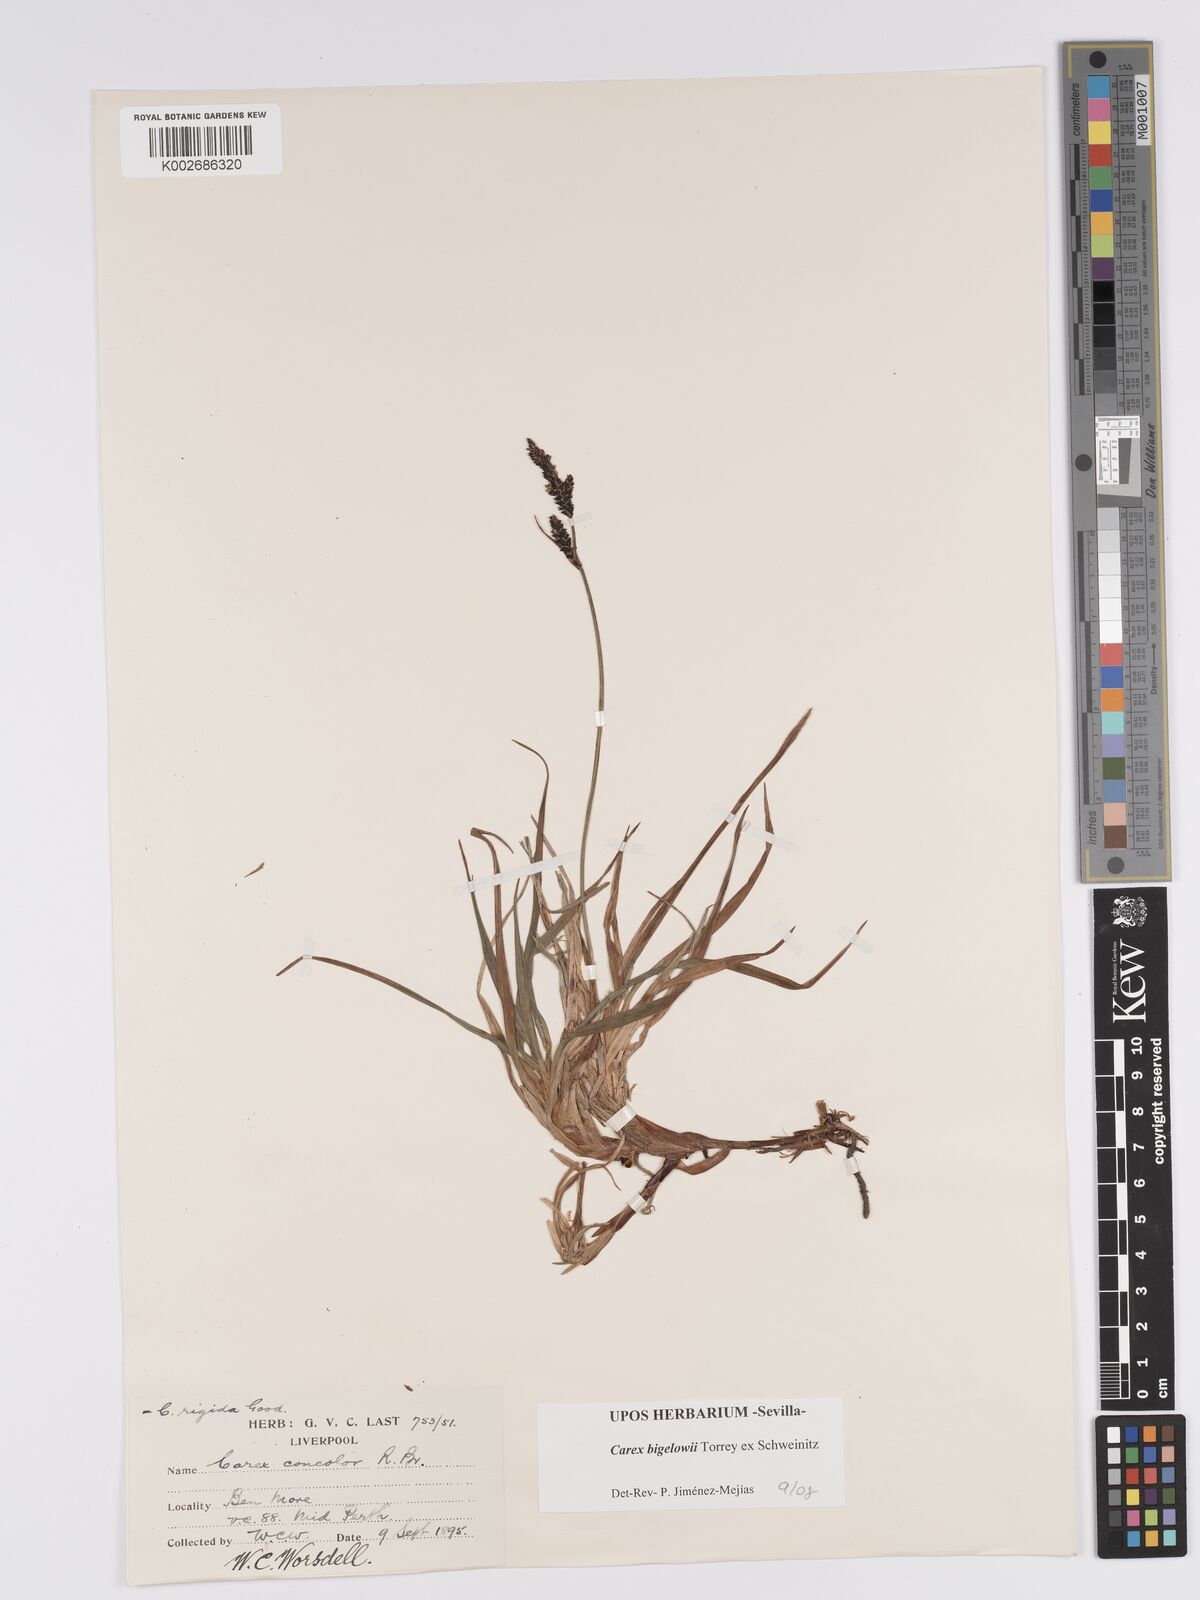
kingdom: Plantae
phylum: Tracheophyta
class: Liliopsida
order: Poales
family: Cyperaceae
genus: Carex
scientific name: Carex bigelowii
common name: Stiff sedge
